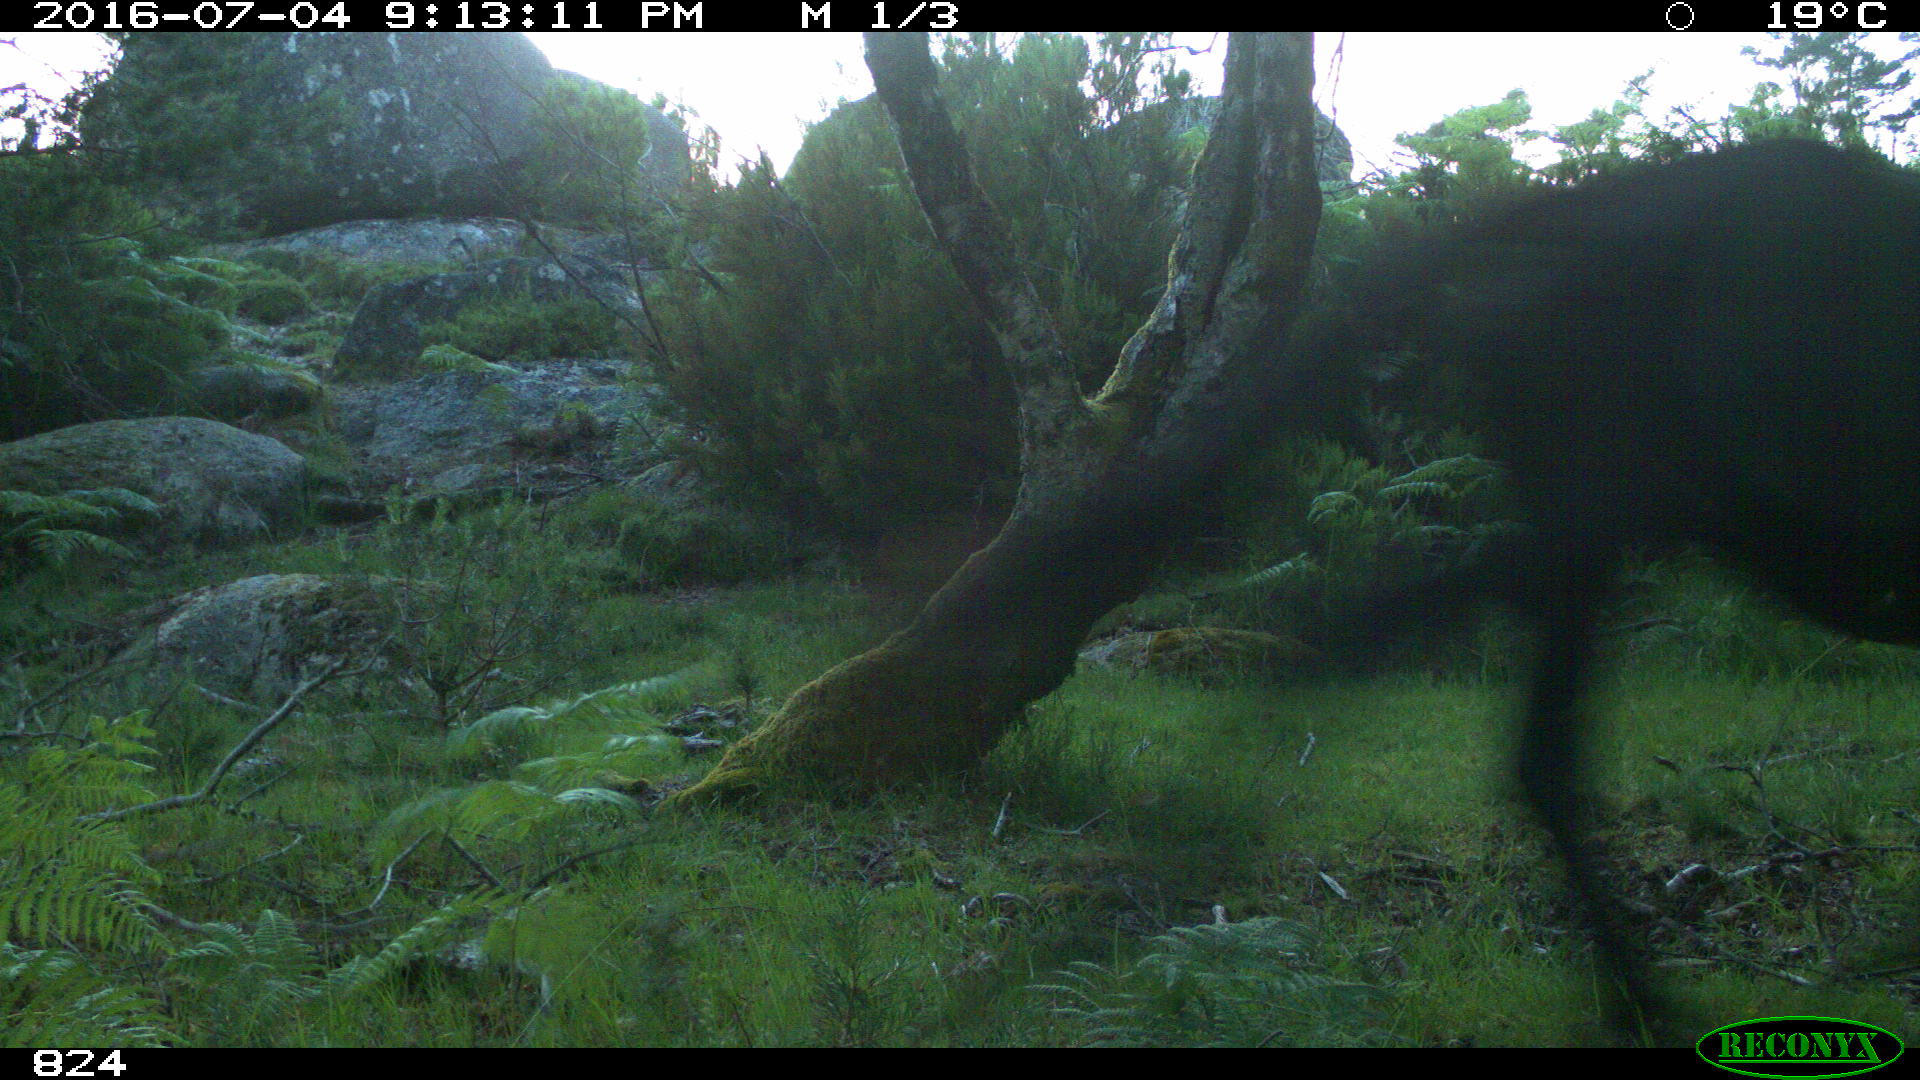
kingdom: Animalia
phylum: Chordata
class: Mammalia
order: Perissodactyla
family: Equidae
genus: Equus
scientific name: Equus caballus
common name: Horse
